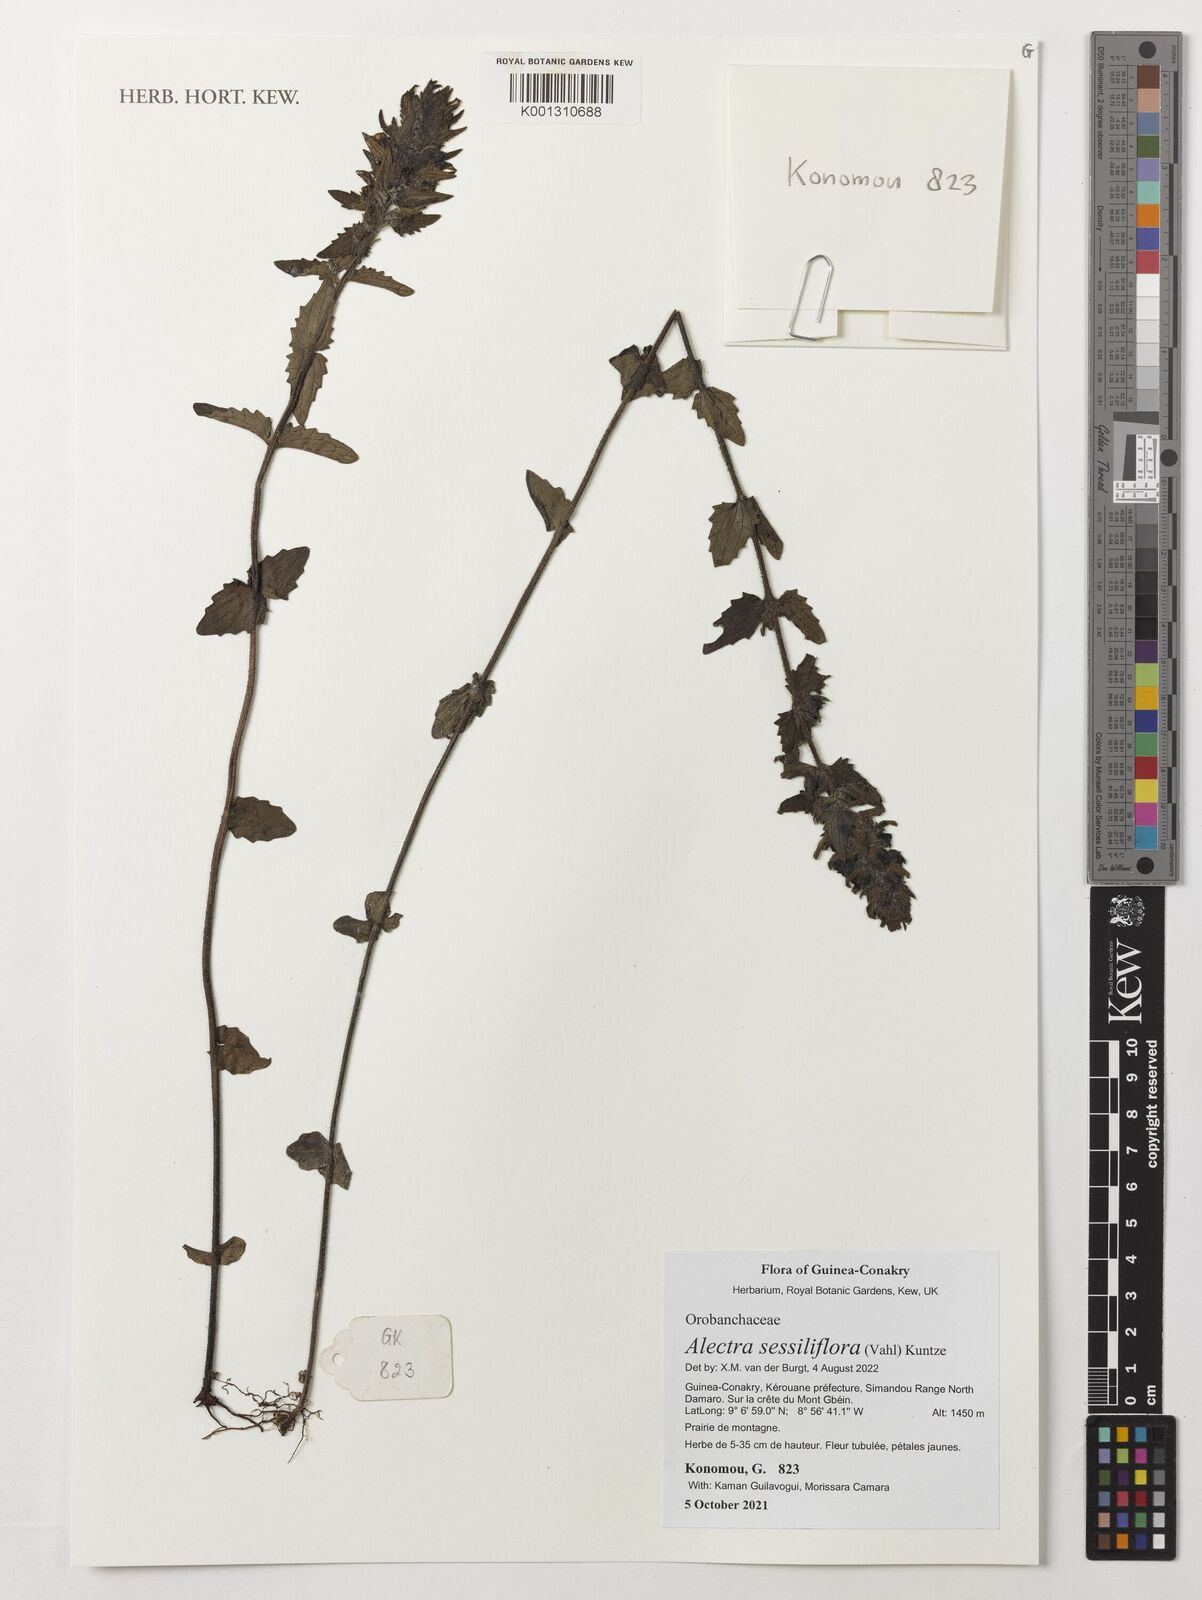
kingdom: Plantae
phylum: Tracheophyta
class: Magnoliopsida
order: Lamiales
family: Orobanchaceae
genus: Alectra
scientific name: Alectra sessiliflora
